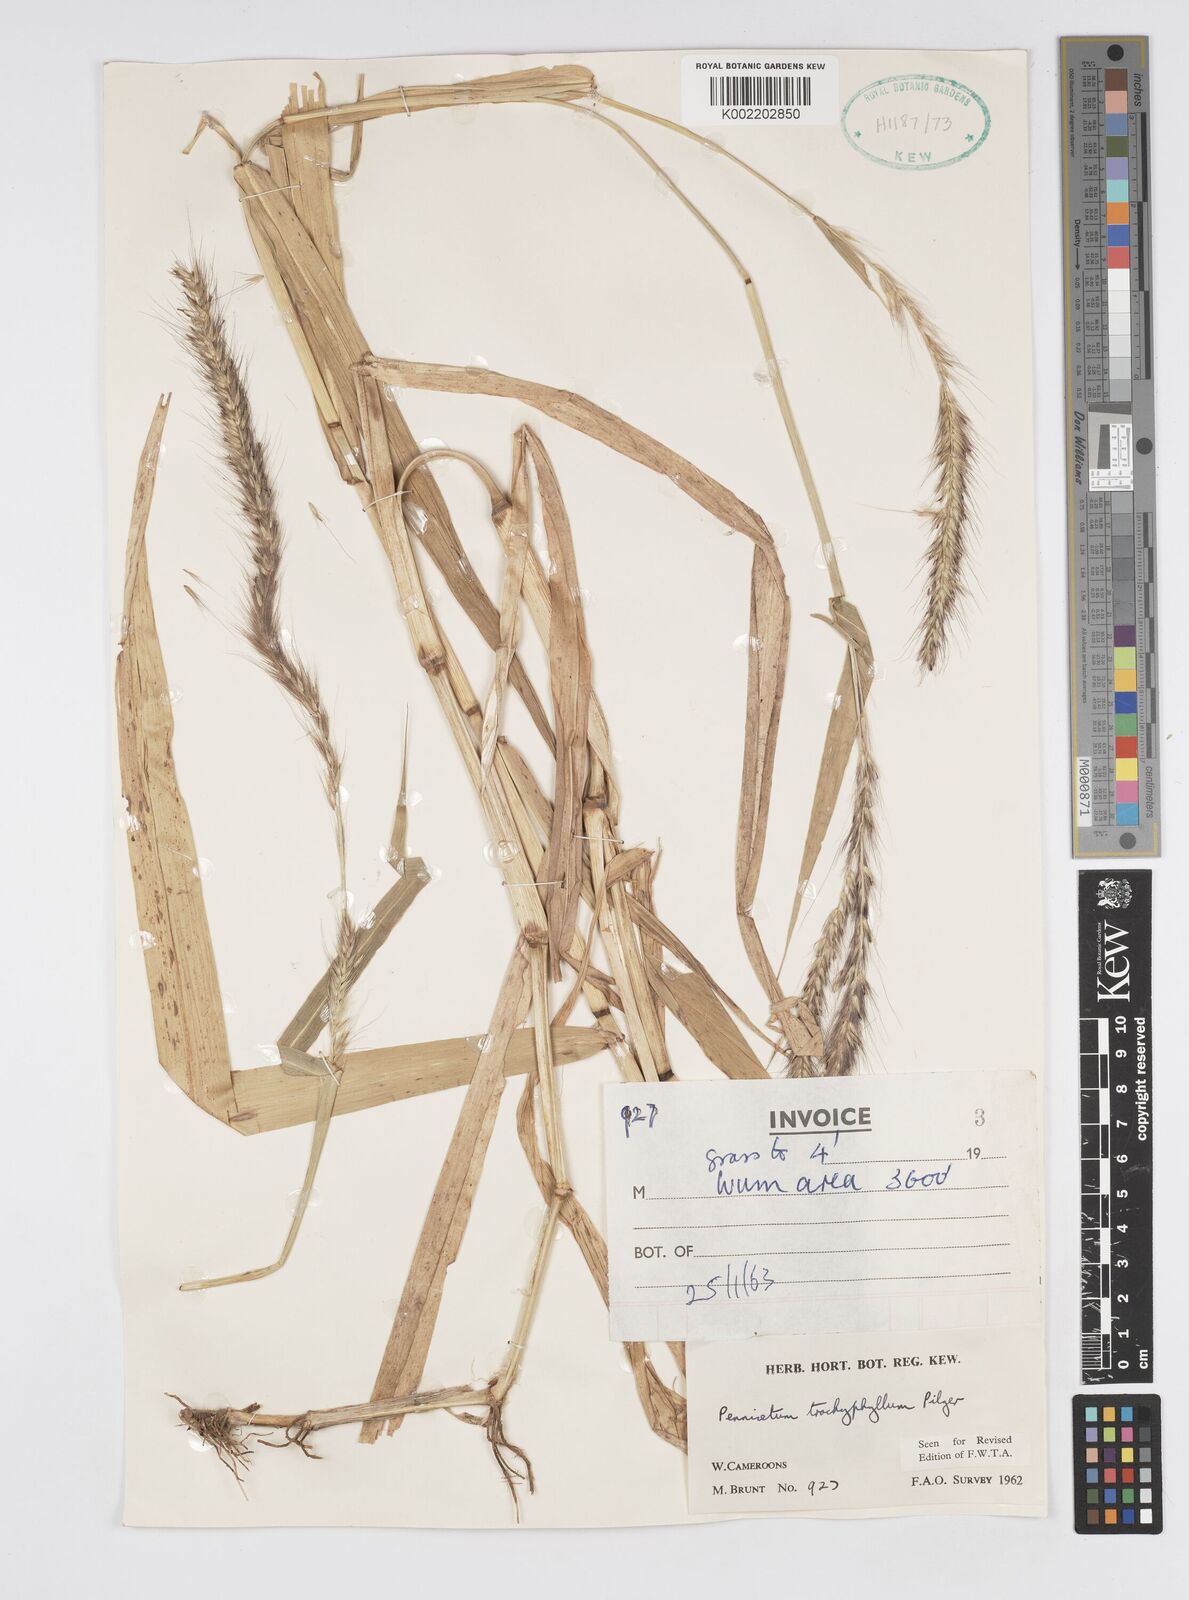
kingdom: Plantae
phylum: Tracheophyta
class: Liliopsida
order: Poales
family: Poaceae
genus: Cenchrus
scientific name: Cenchrus trachyphyllus
